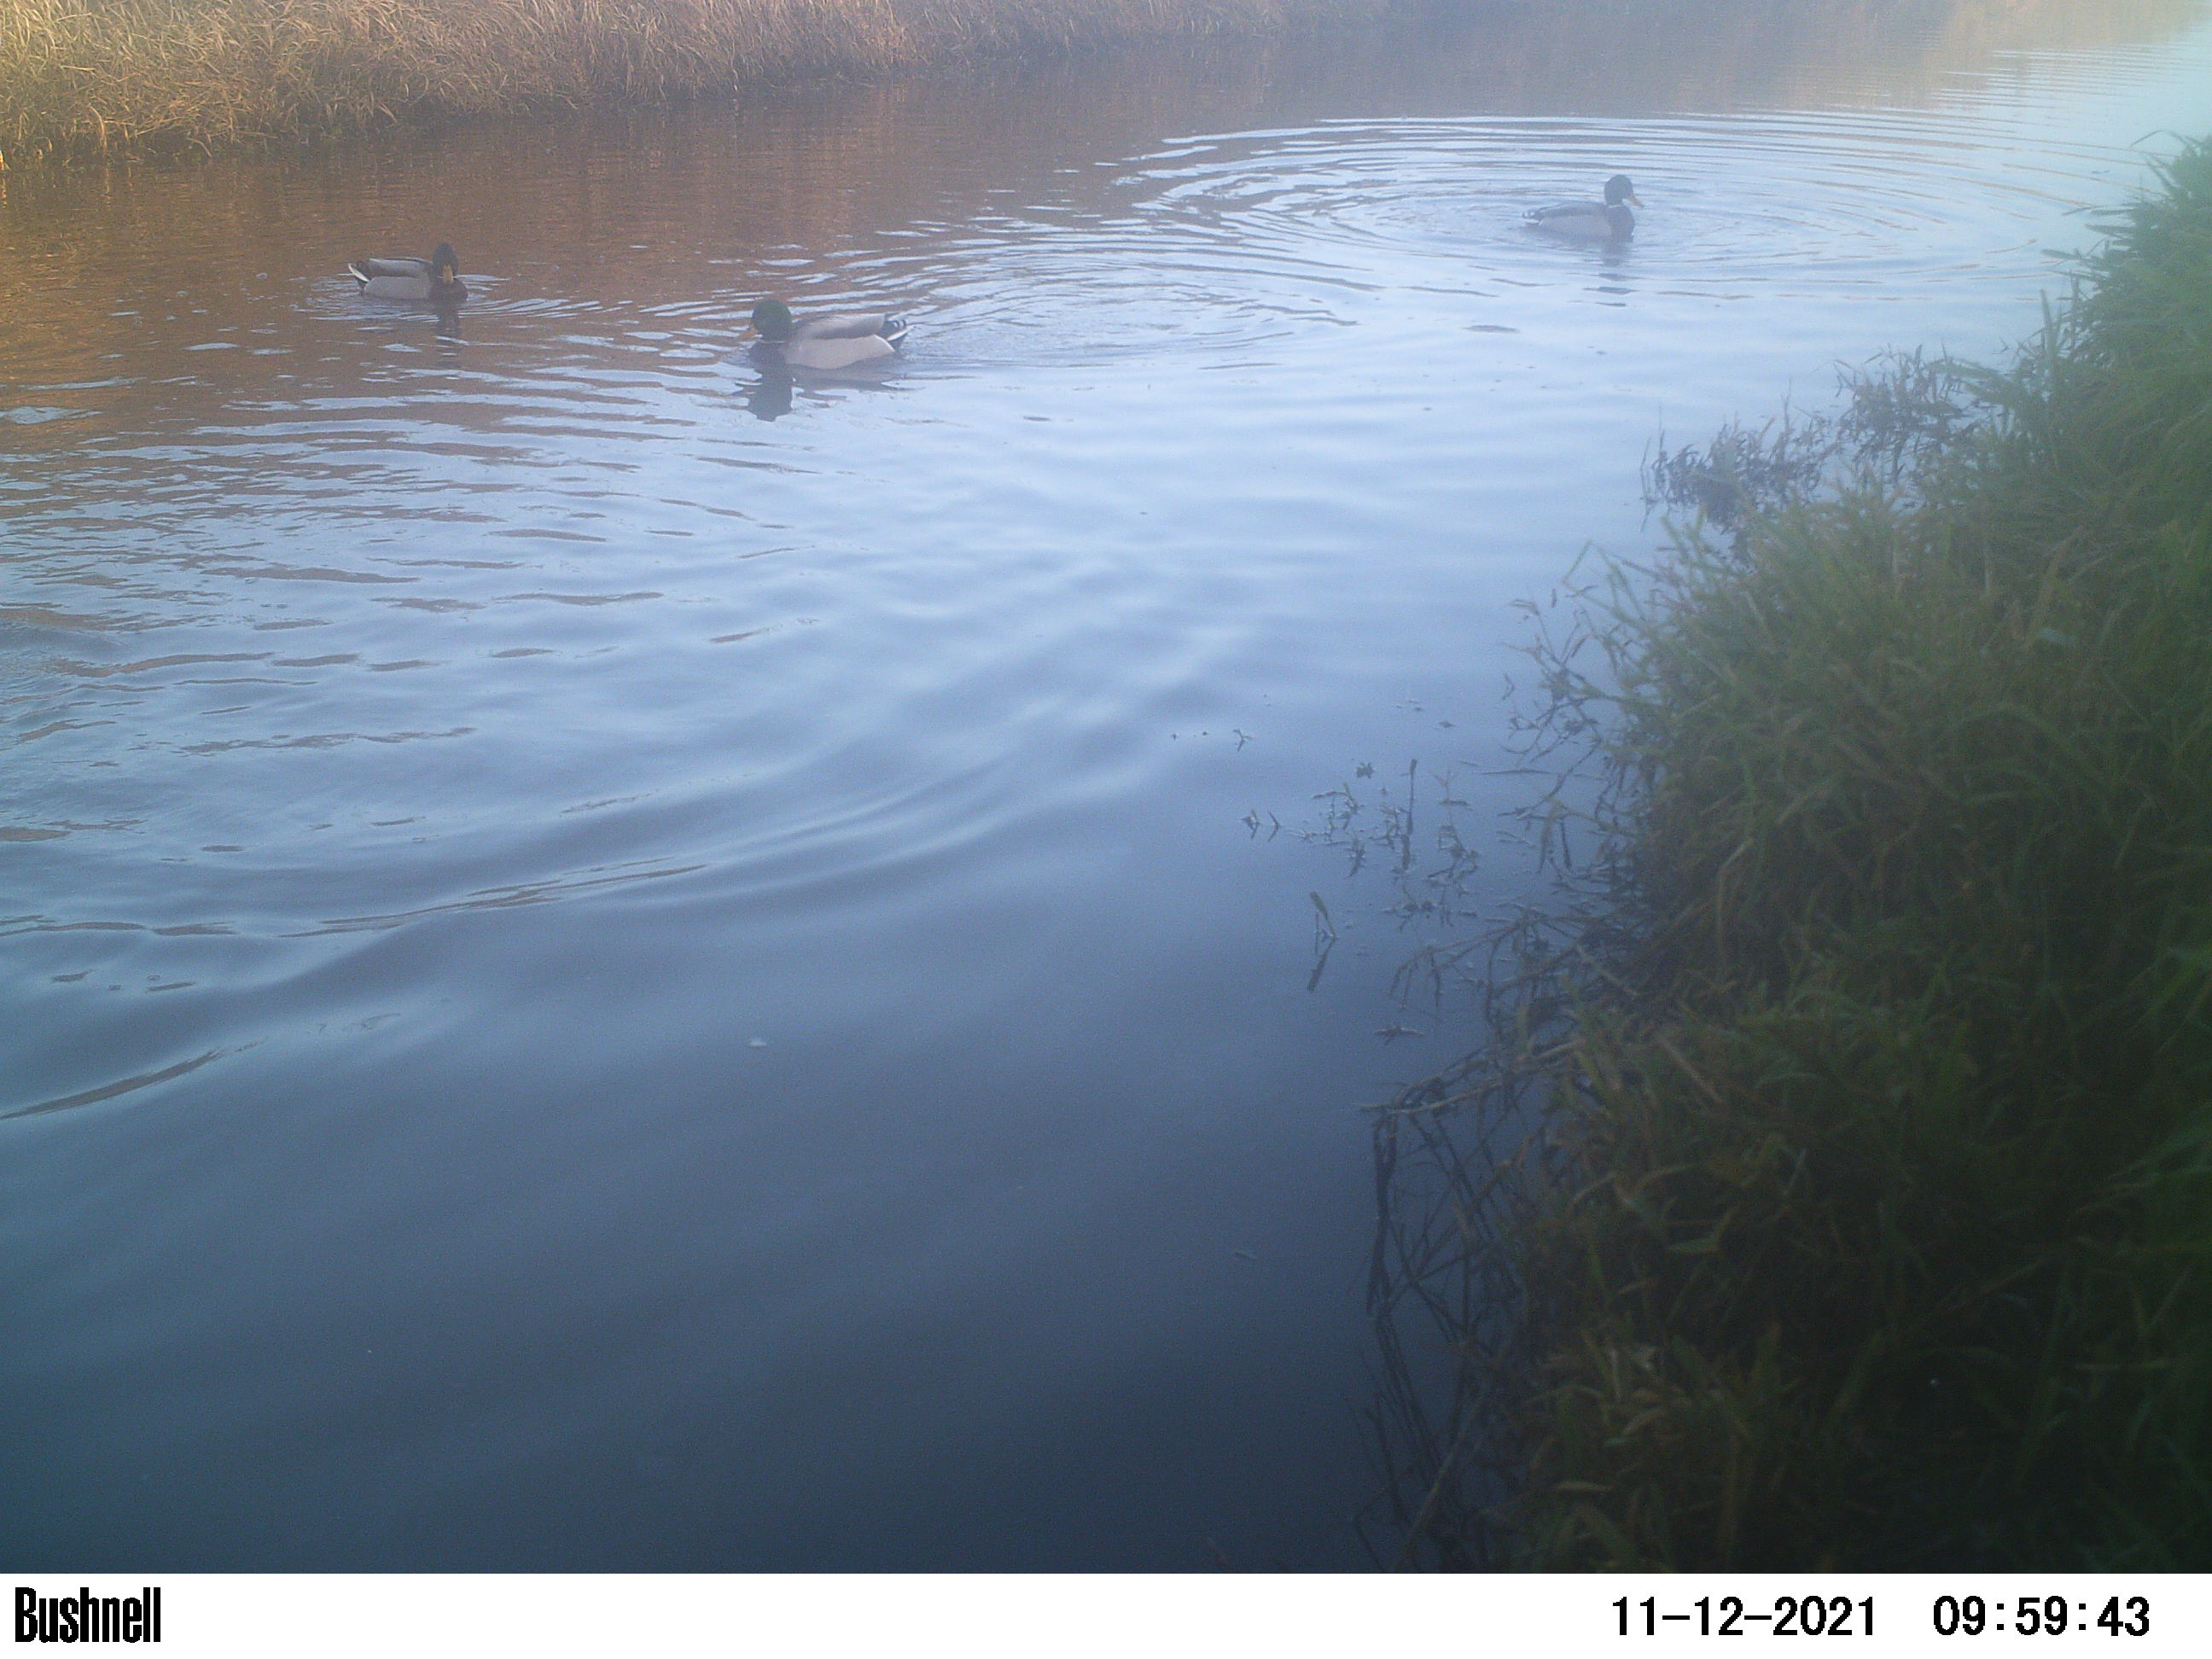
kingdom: Animalia
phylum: Chordata
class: Aves
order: Anseriformes
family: Anatidae
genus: Anas
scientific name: Anas
